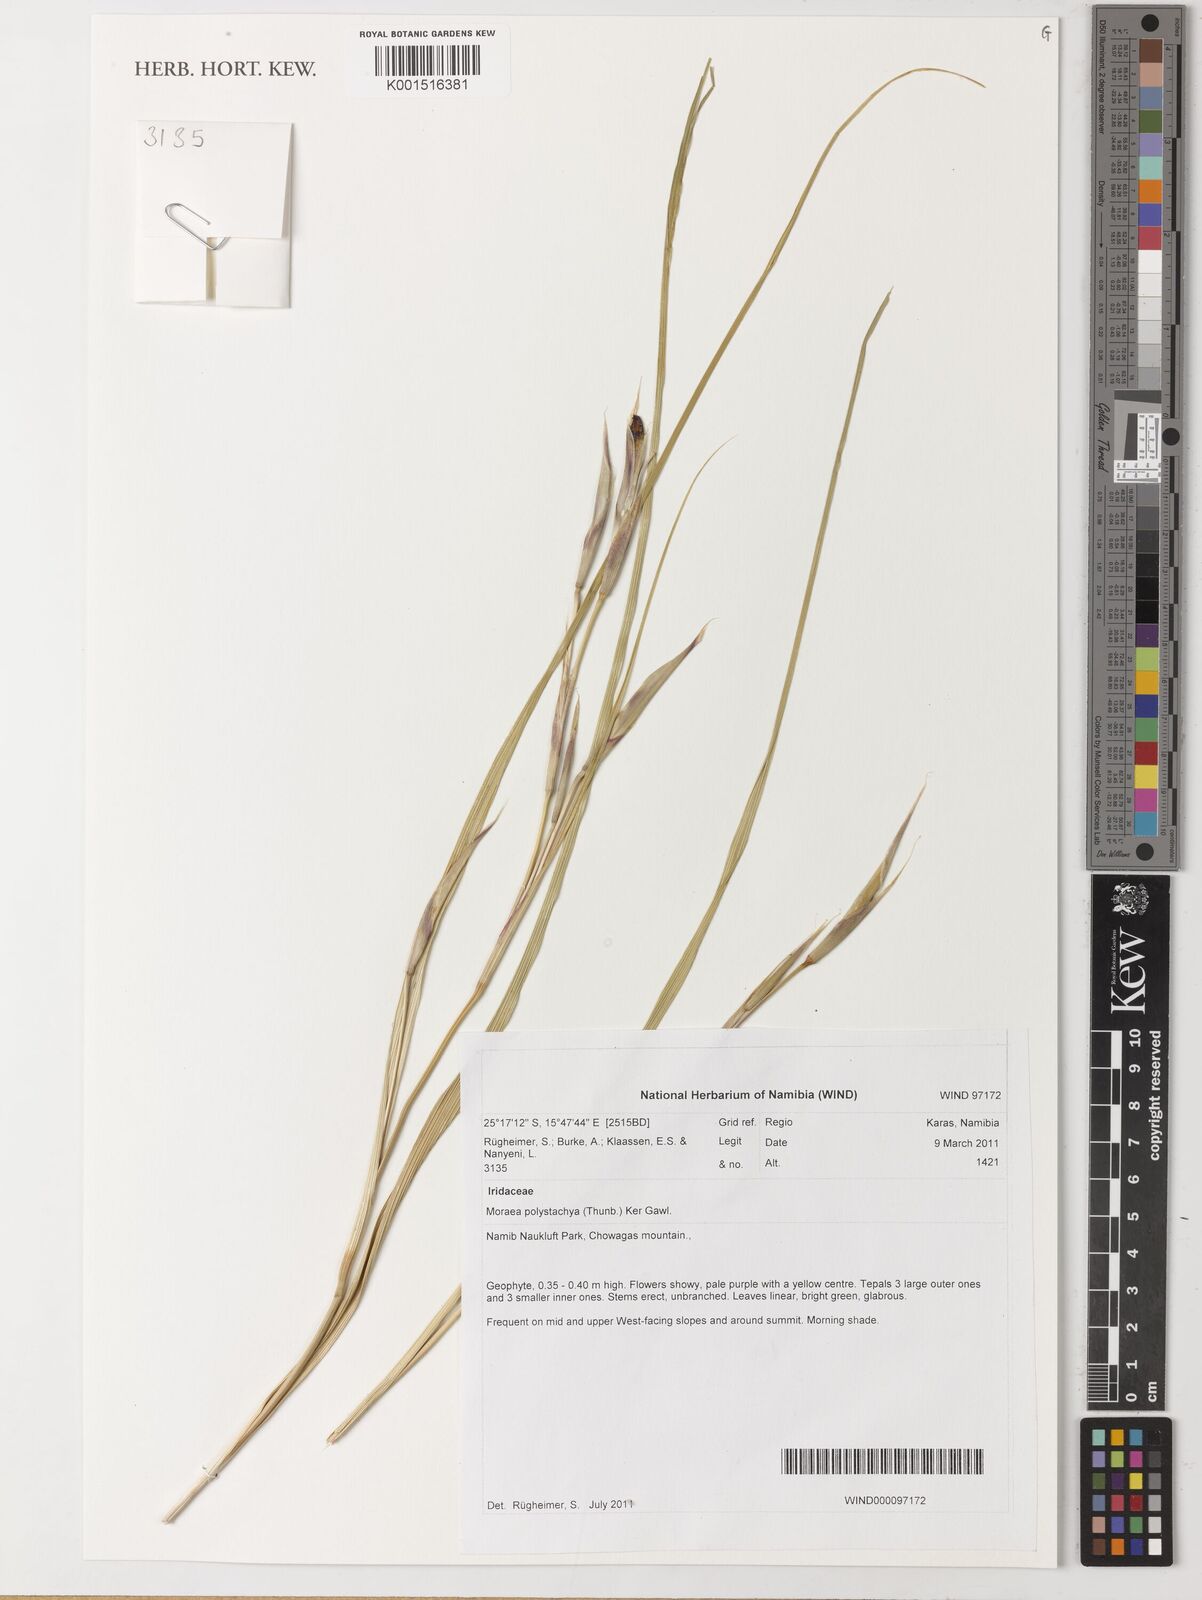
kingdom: Plantae
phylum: Tracheophyta
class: Liliopsida
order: Asparagales
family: Iridaceae
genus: Moraea
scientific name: Moraea polystachya
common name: Blue-tulip
